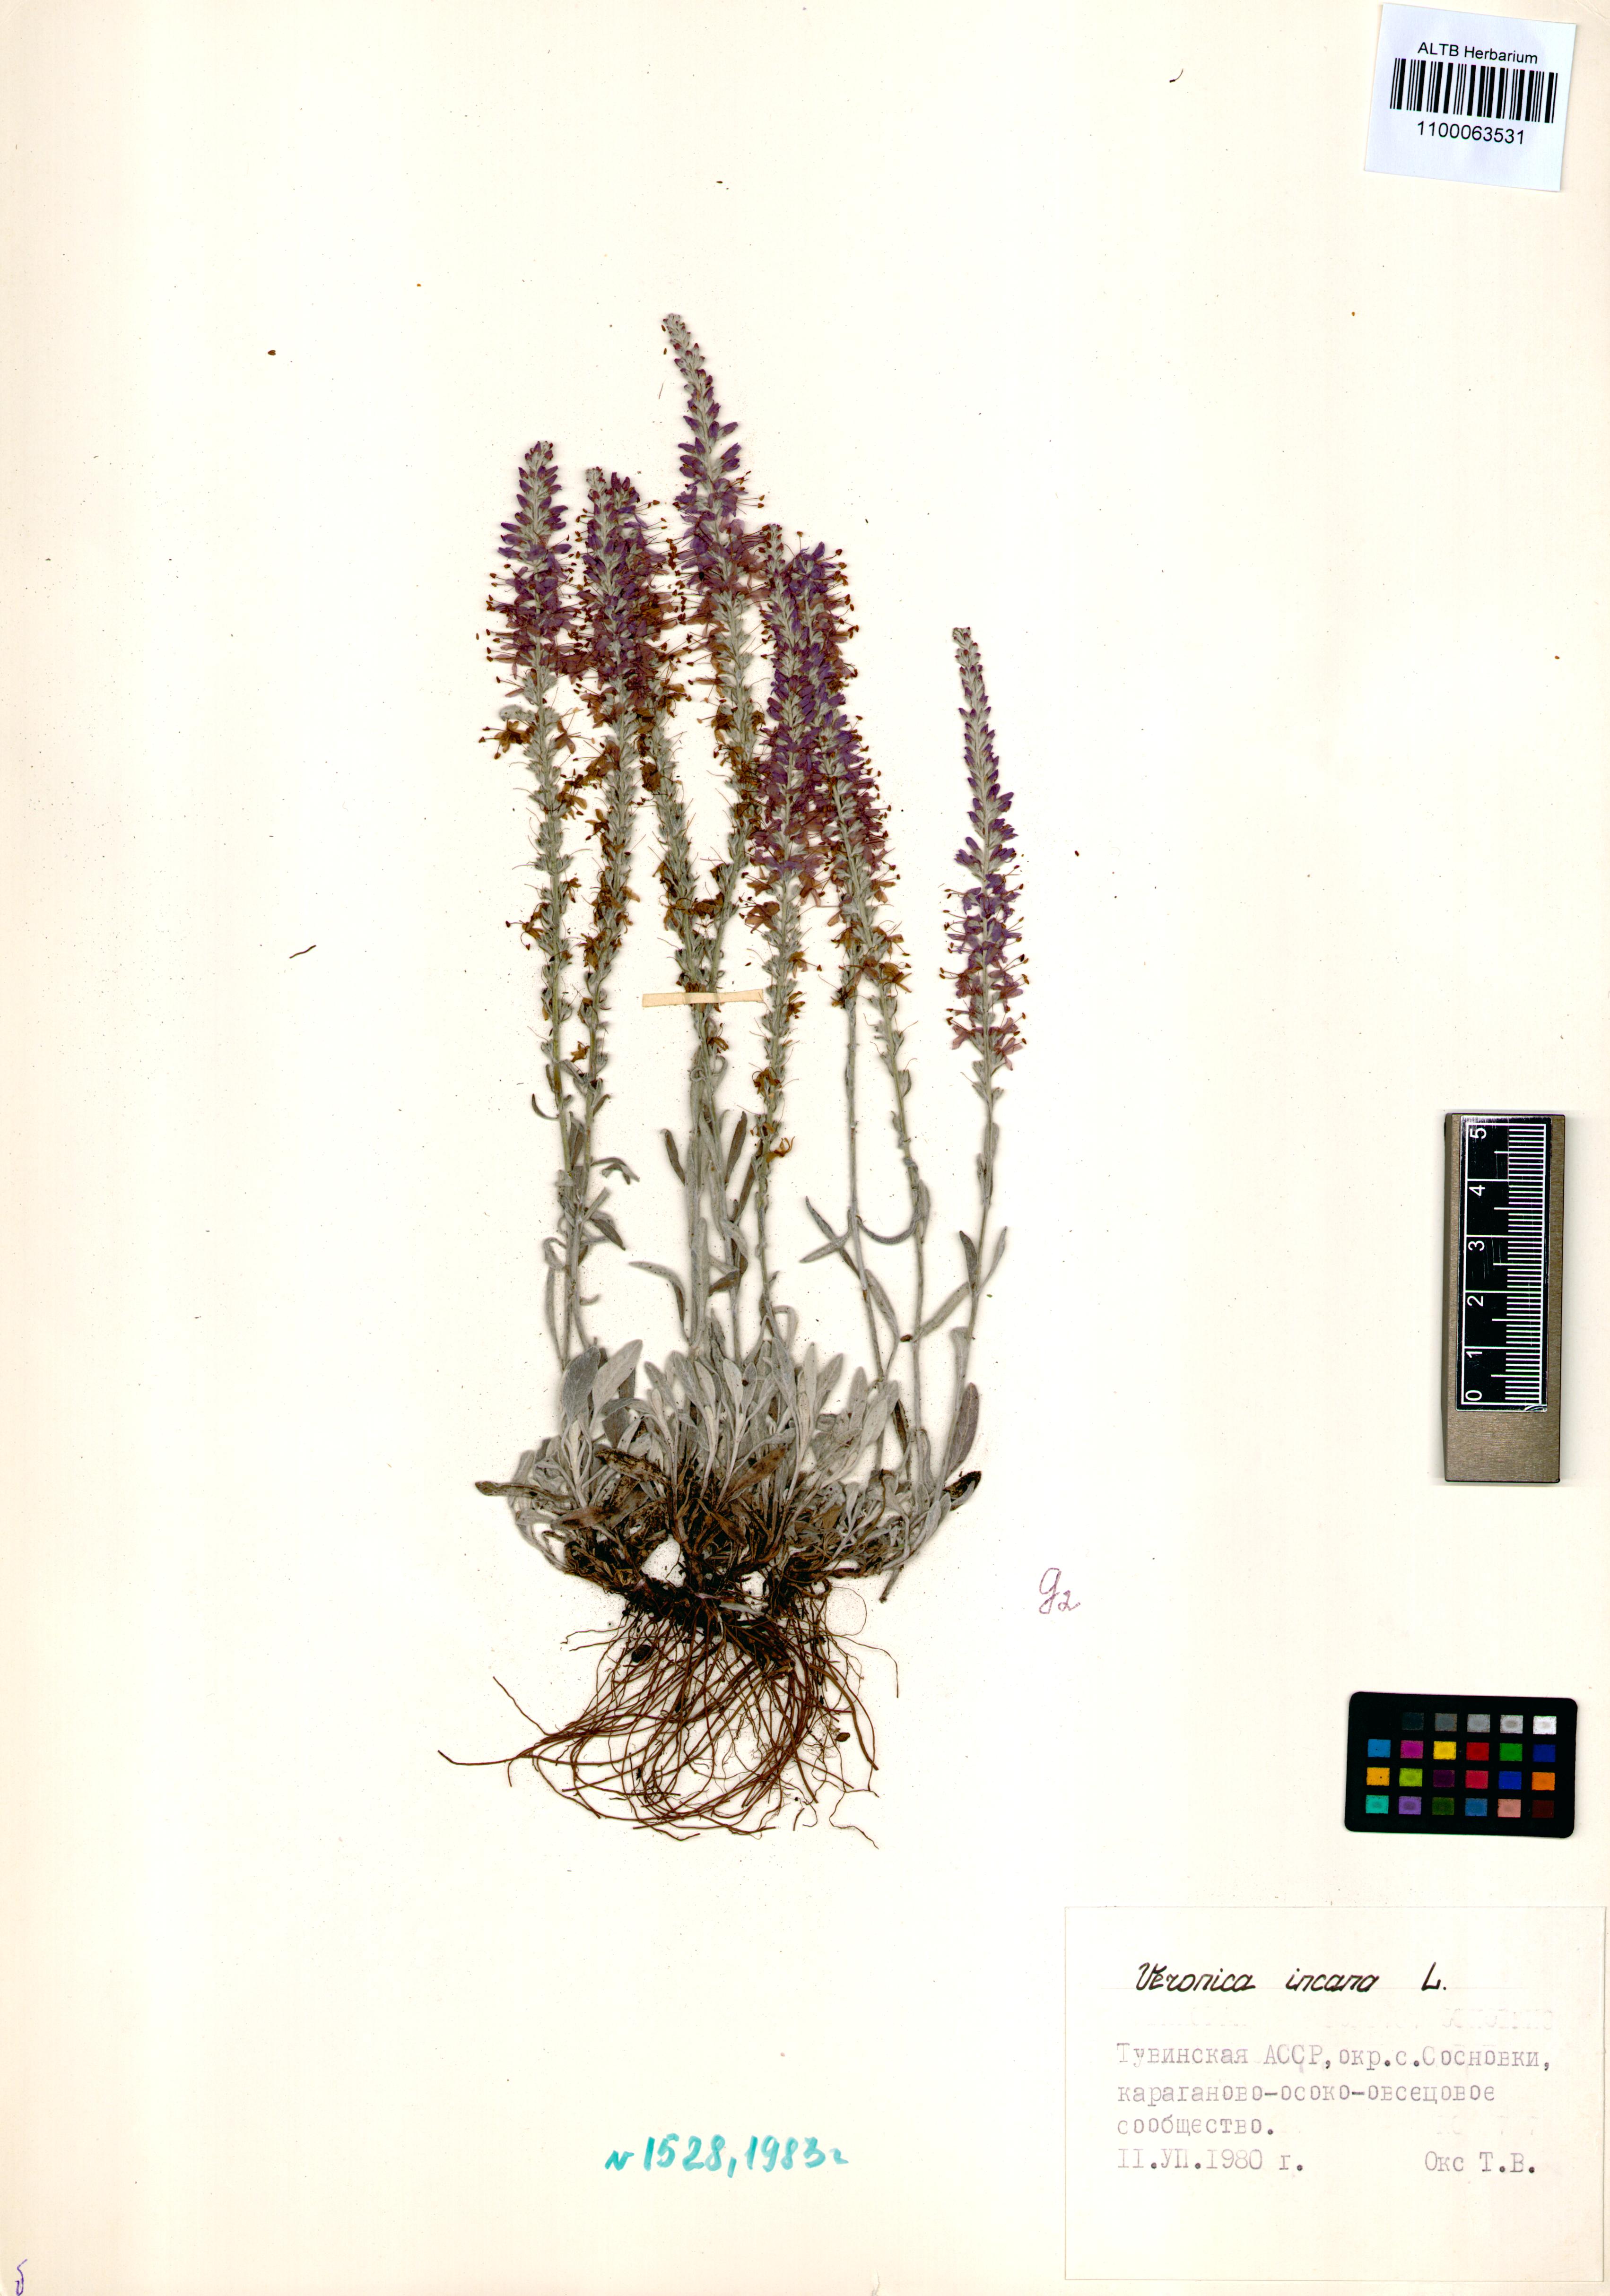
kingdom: Plantae
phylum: Tracheophyta
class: Magnoliopsida
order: Lamiales
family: Plantaginaceae
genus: Veronica
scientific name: Veronica incana
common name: Silver speedwell
